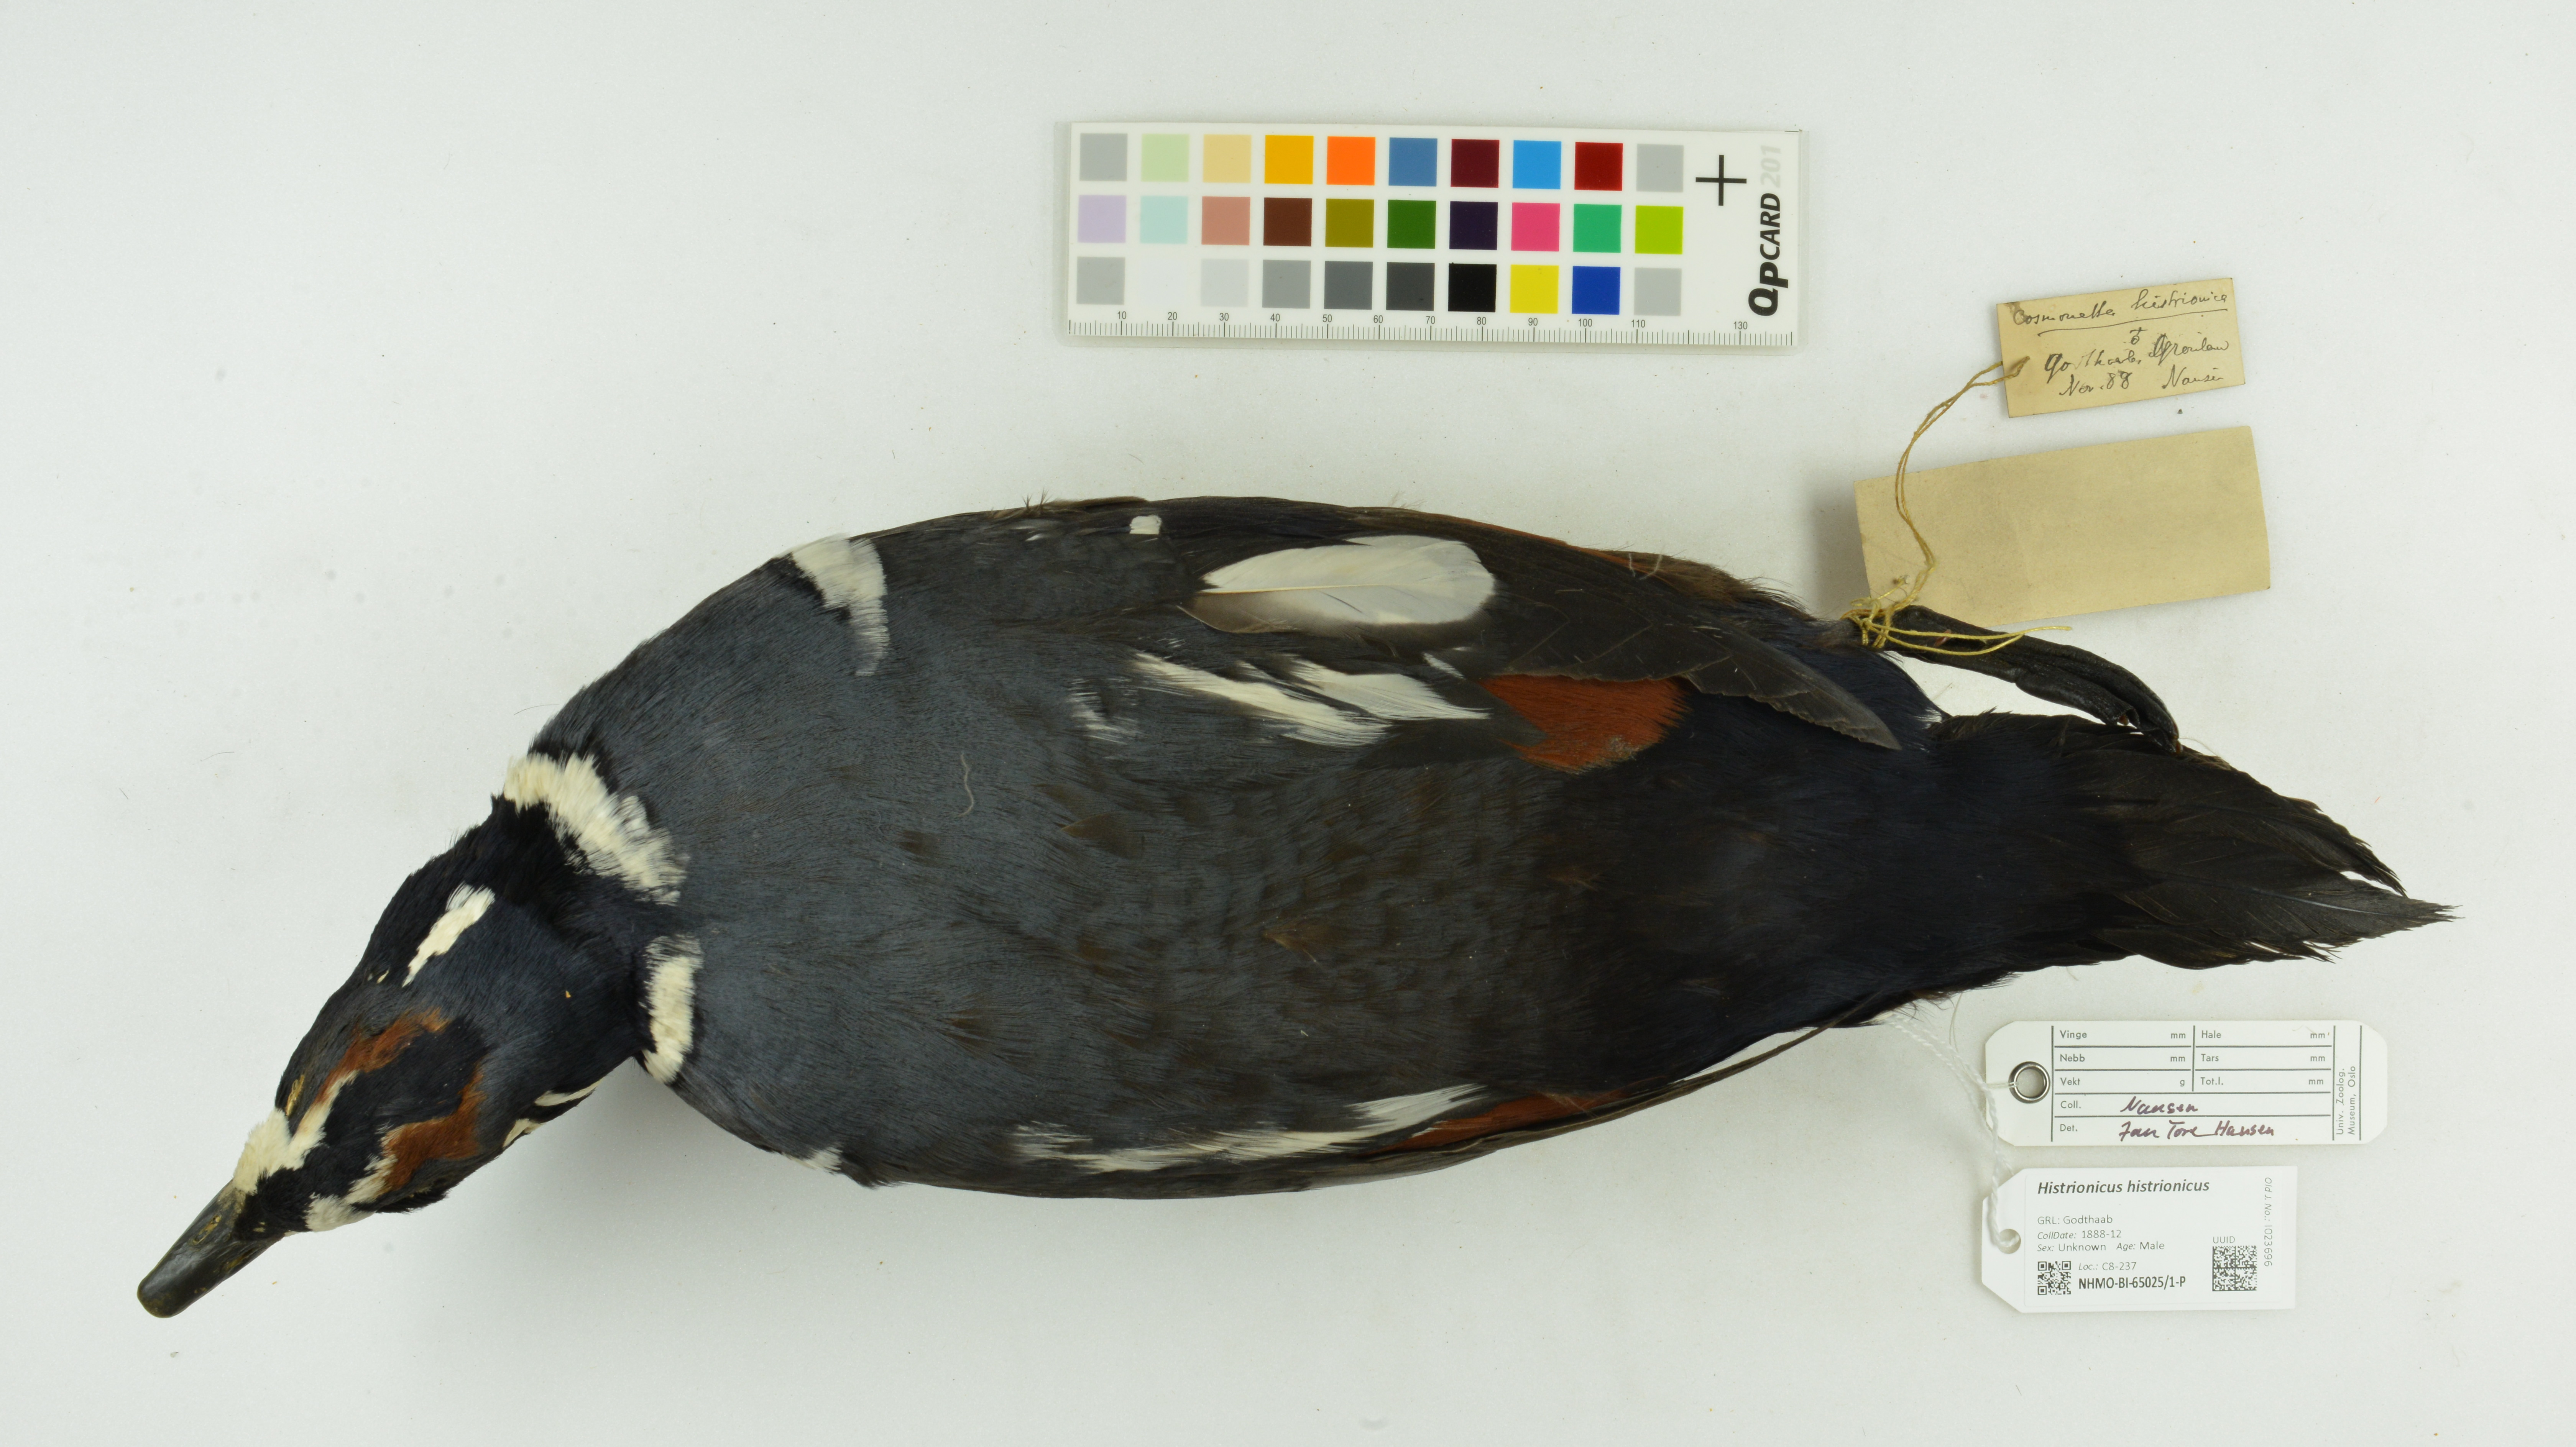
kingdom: Animalia
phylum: Chordata
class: Aves
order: Anseriformes
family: Anatidae
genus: Histrionicus
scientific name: Histrionicus histrionicus
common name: Harlequin duck
